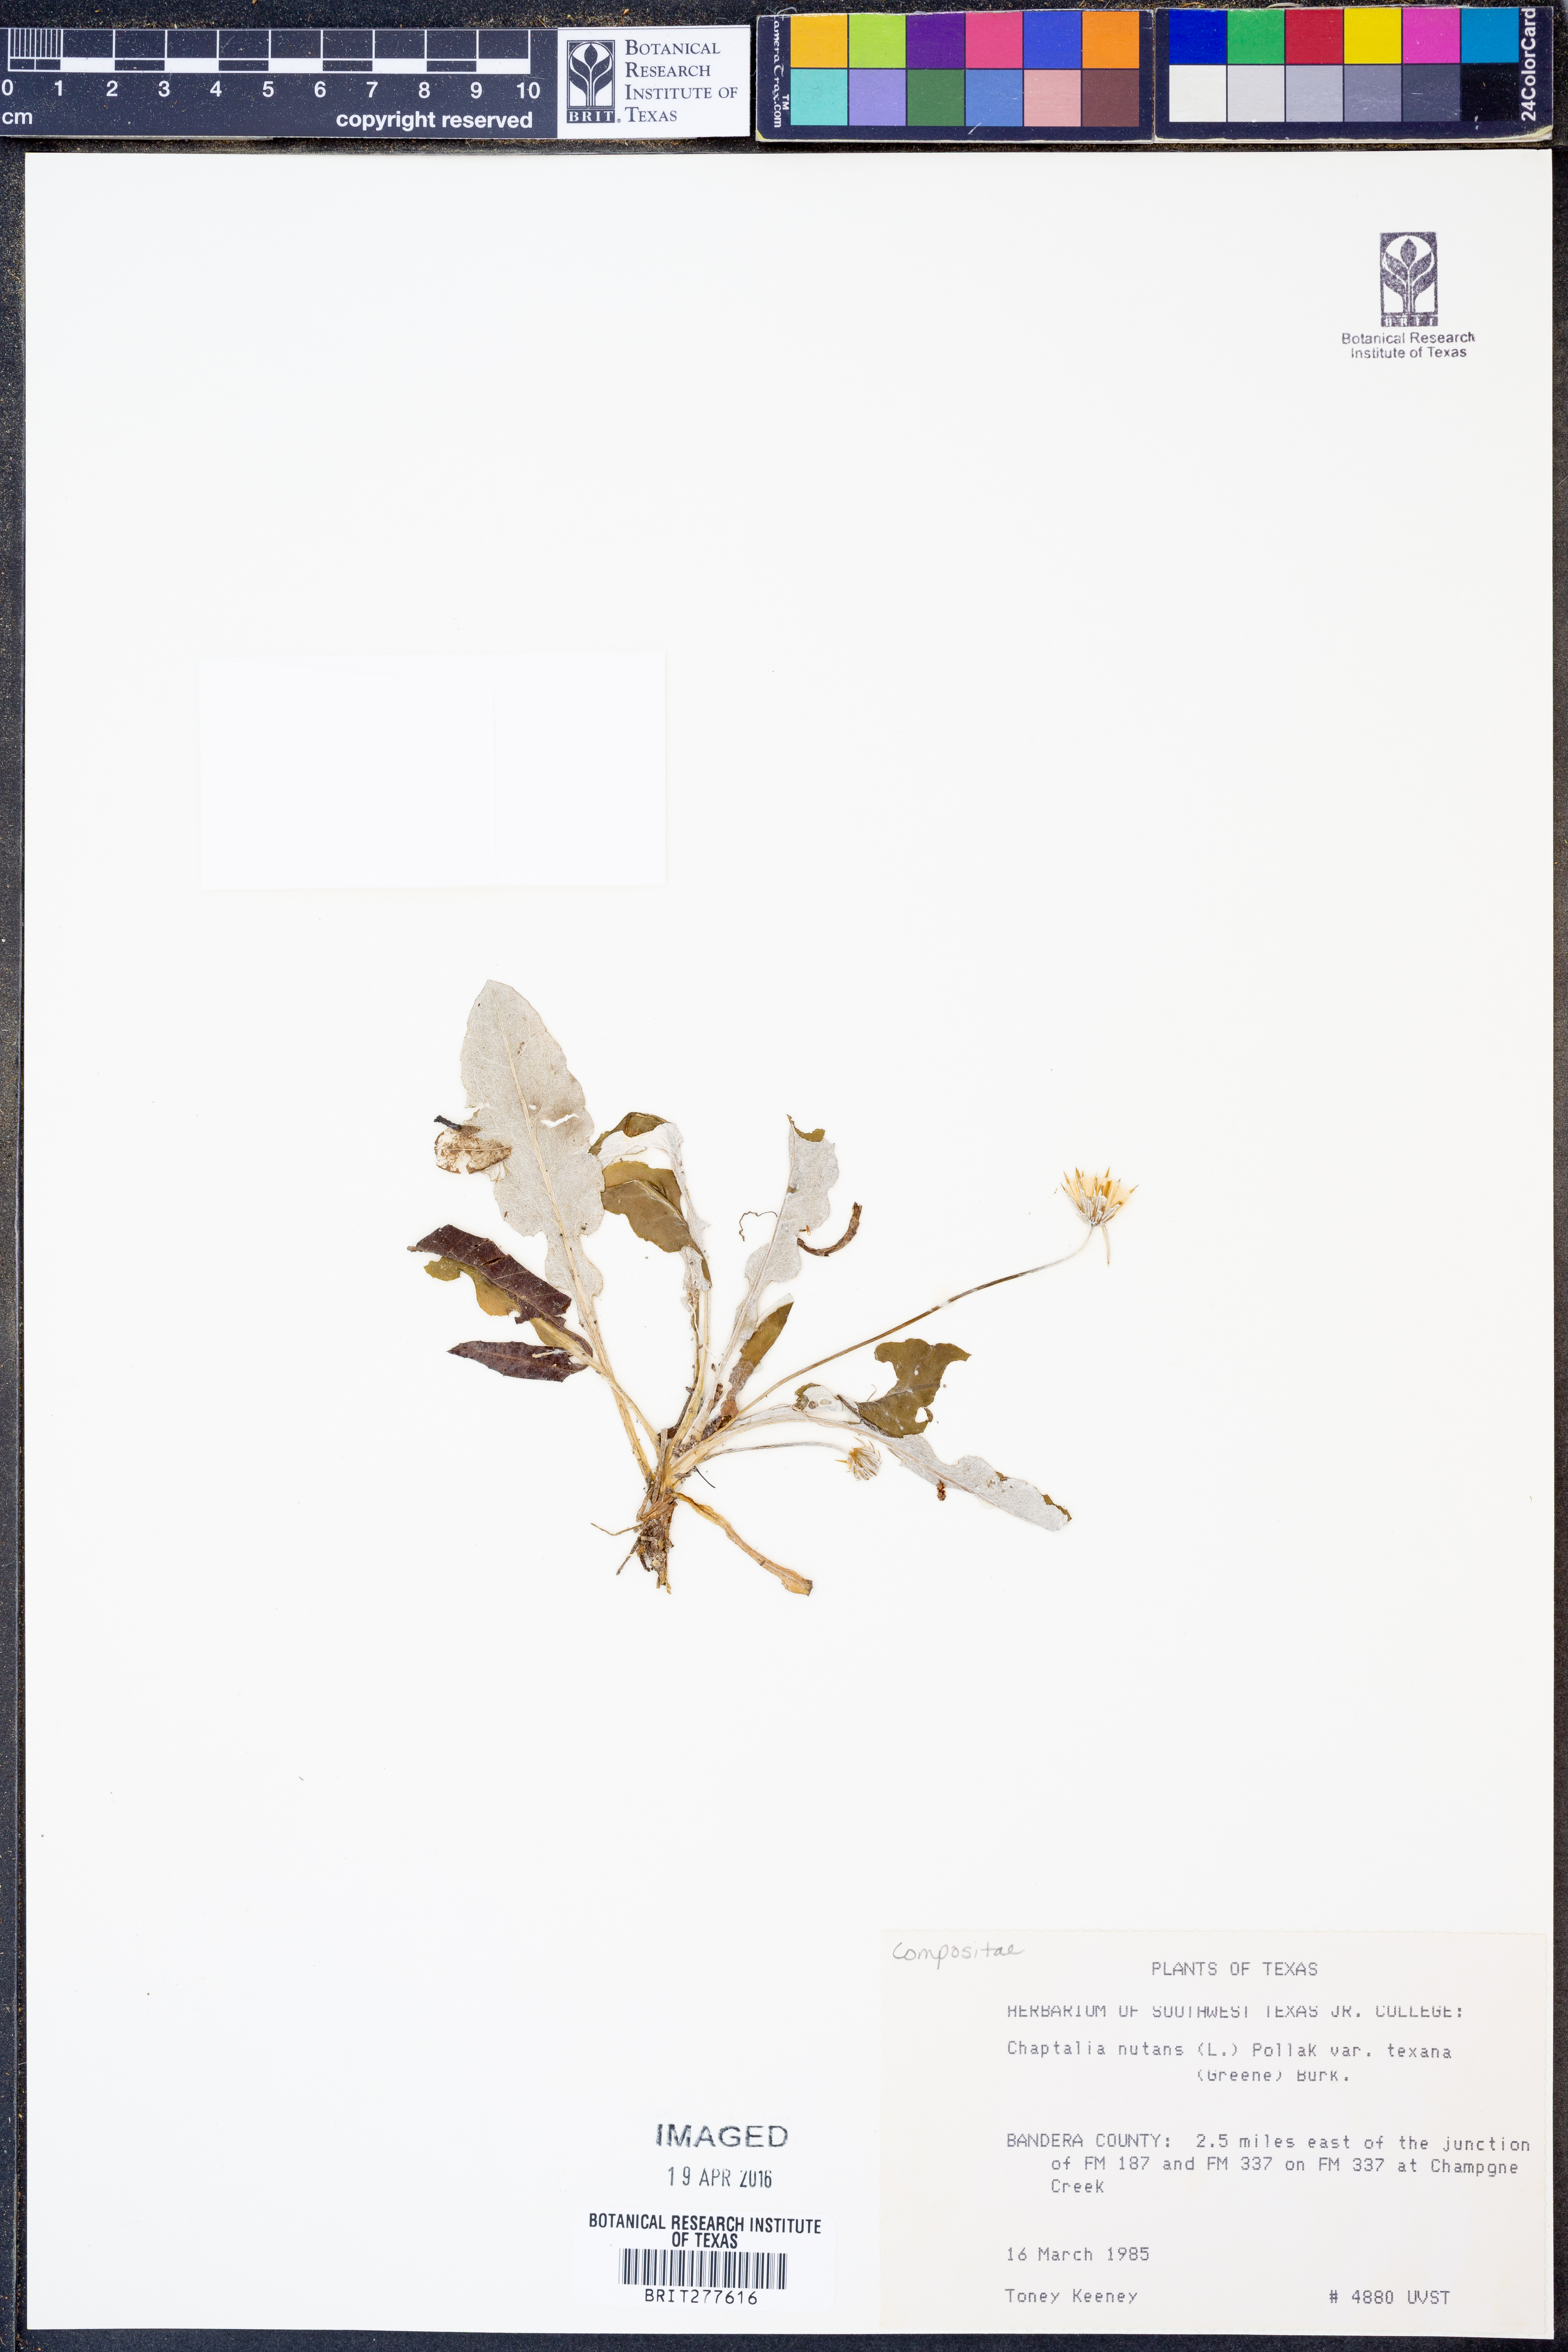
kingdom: Plantae
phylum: Tracheophyta
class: Magnoliopsida
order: Asterales
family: Asteraceae
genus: Chaptalia
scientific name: Chaptalia texana
